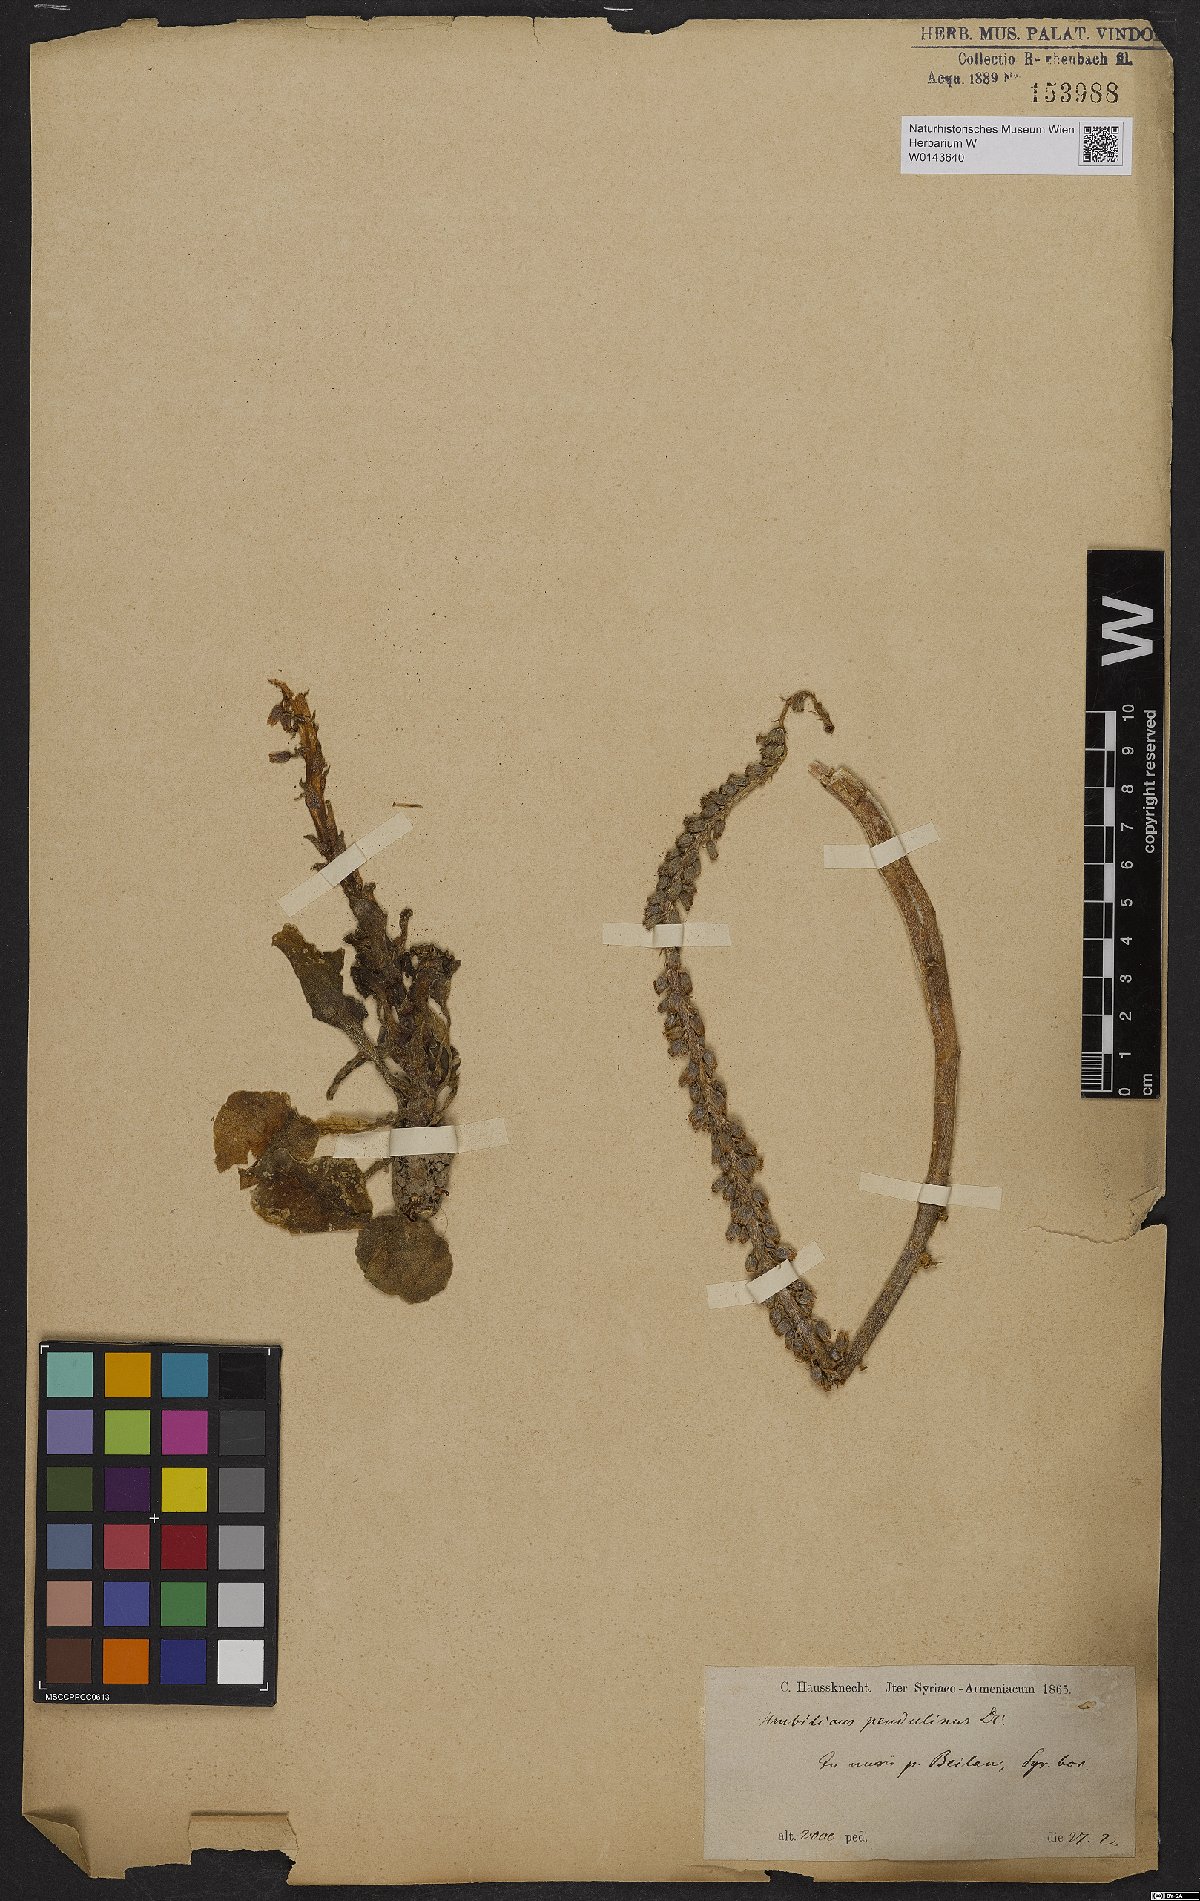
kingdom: Plantae
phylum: Tracheophyta
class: Magnoliopsida
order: Saxifragales
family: Crassulaceae
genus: Umbilicus
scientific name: Umbilicus horizontalis
